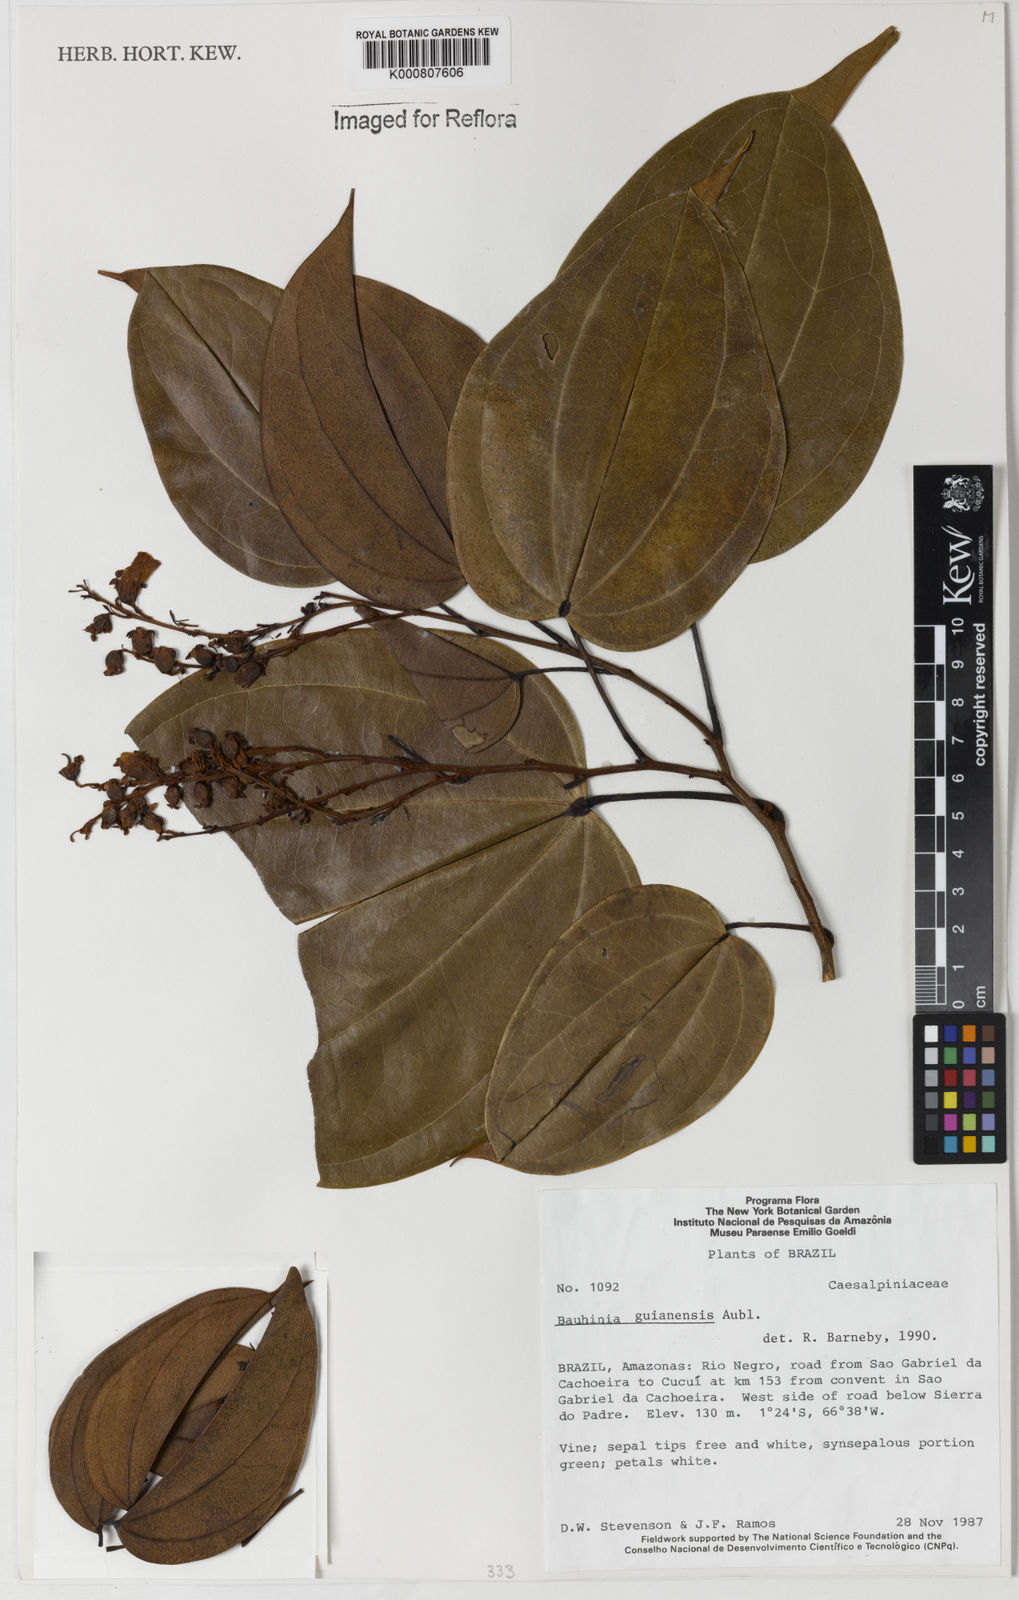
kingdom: Plantae
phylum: Tracheophyta
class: Magnoliopsida
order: Fabales
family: Fabaceae
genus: Schnella
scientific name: Schnella guianensis
